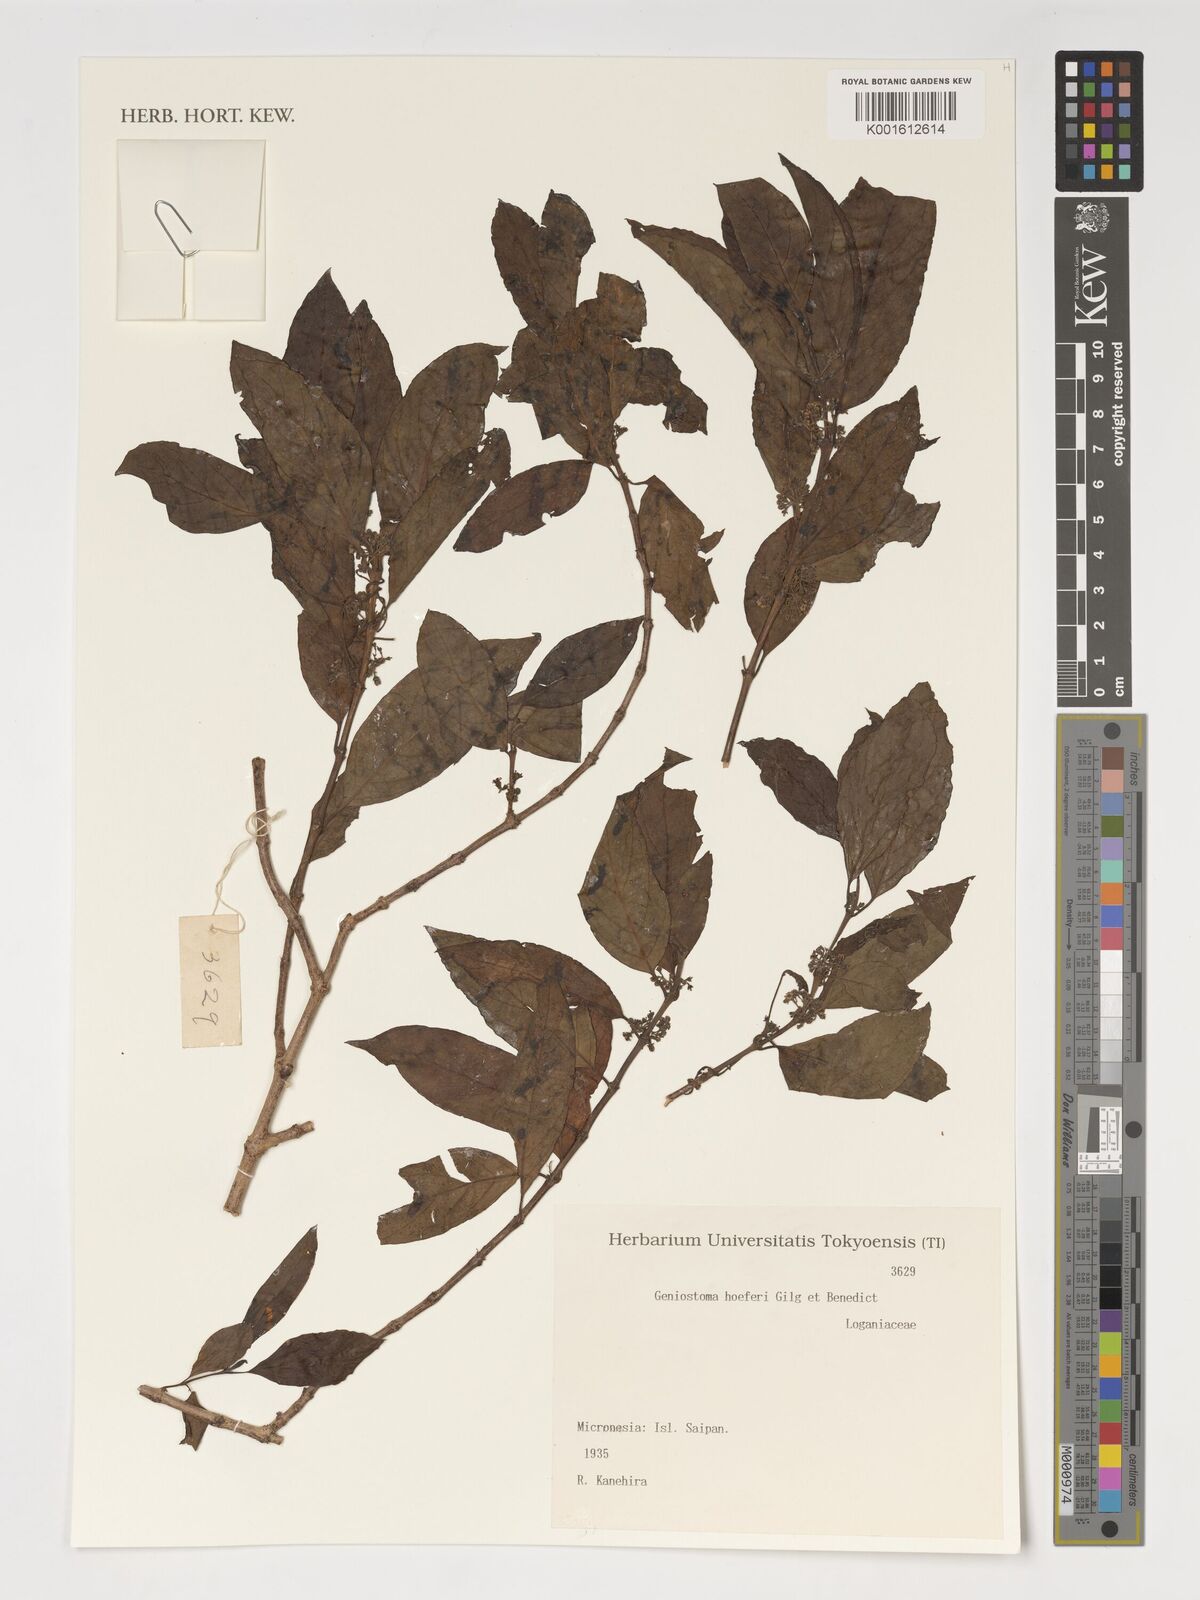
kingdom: Plantae
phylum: Tracheophyta
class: Magnoliopsida
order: Gentianales
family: Loganiaceae
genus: Geniostoma
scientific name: Geniostoma rupestre
